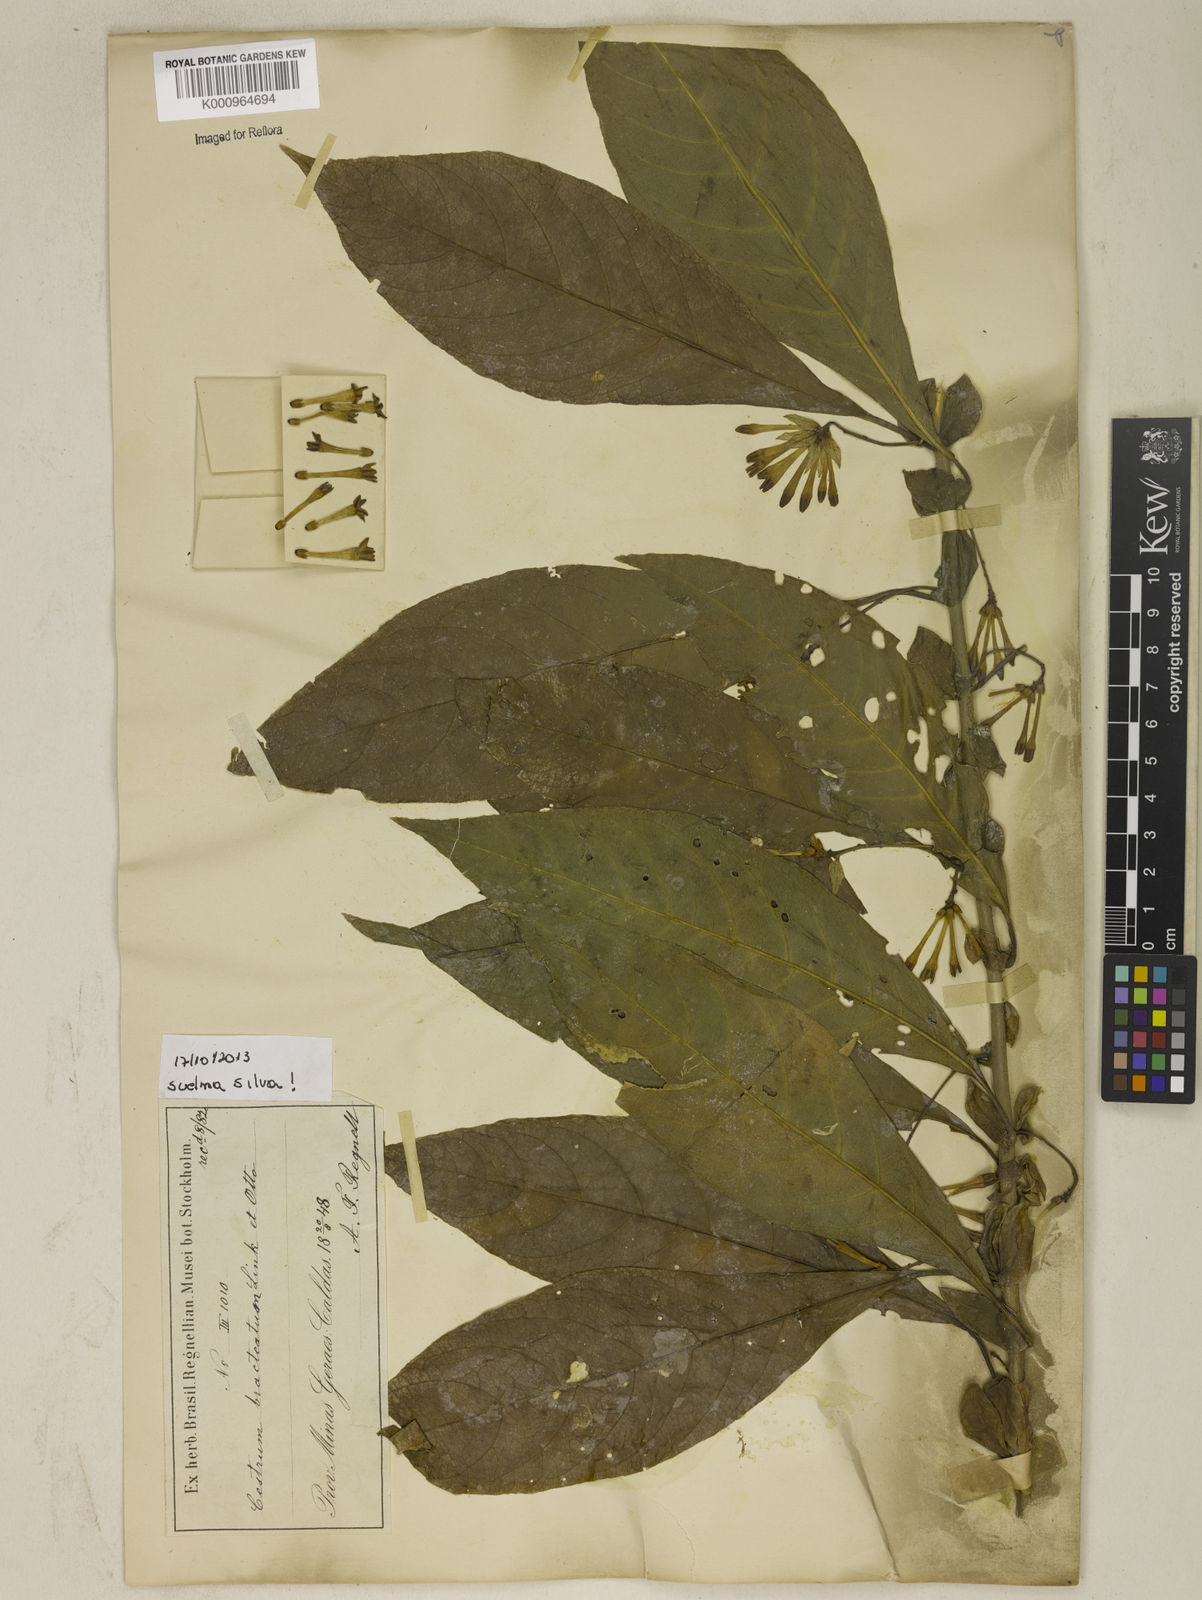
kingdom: Plantae
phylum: Tracheophyta
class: Magnoliopsida
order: Solanales
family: Solanaceae
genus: Cestrum
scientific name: Cestrum bracteatum
